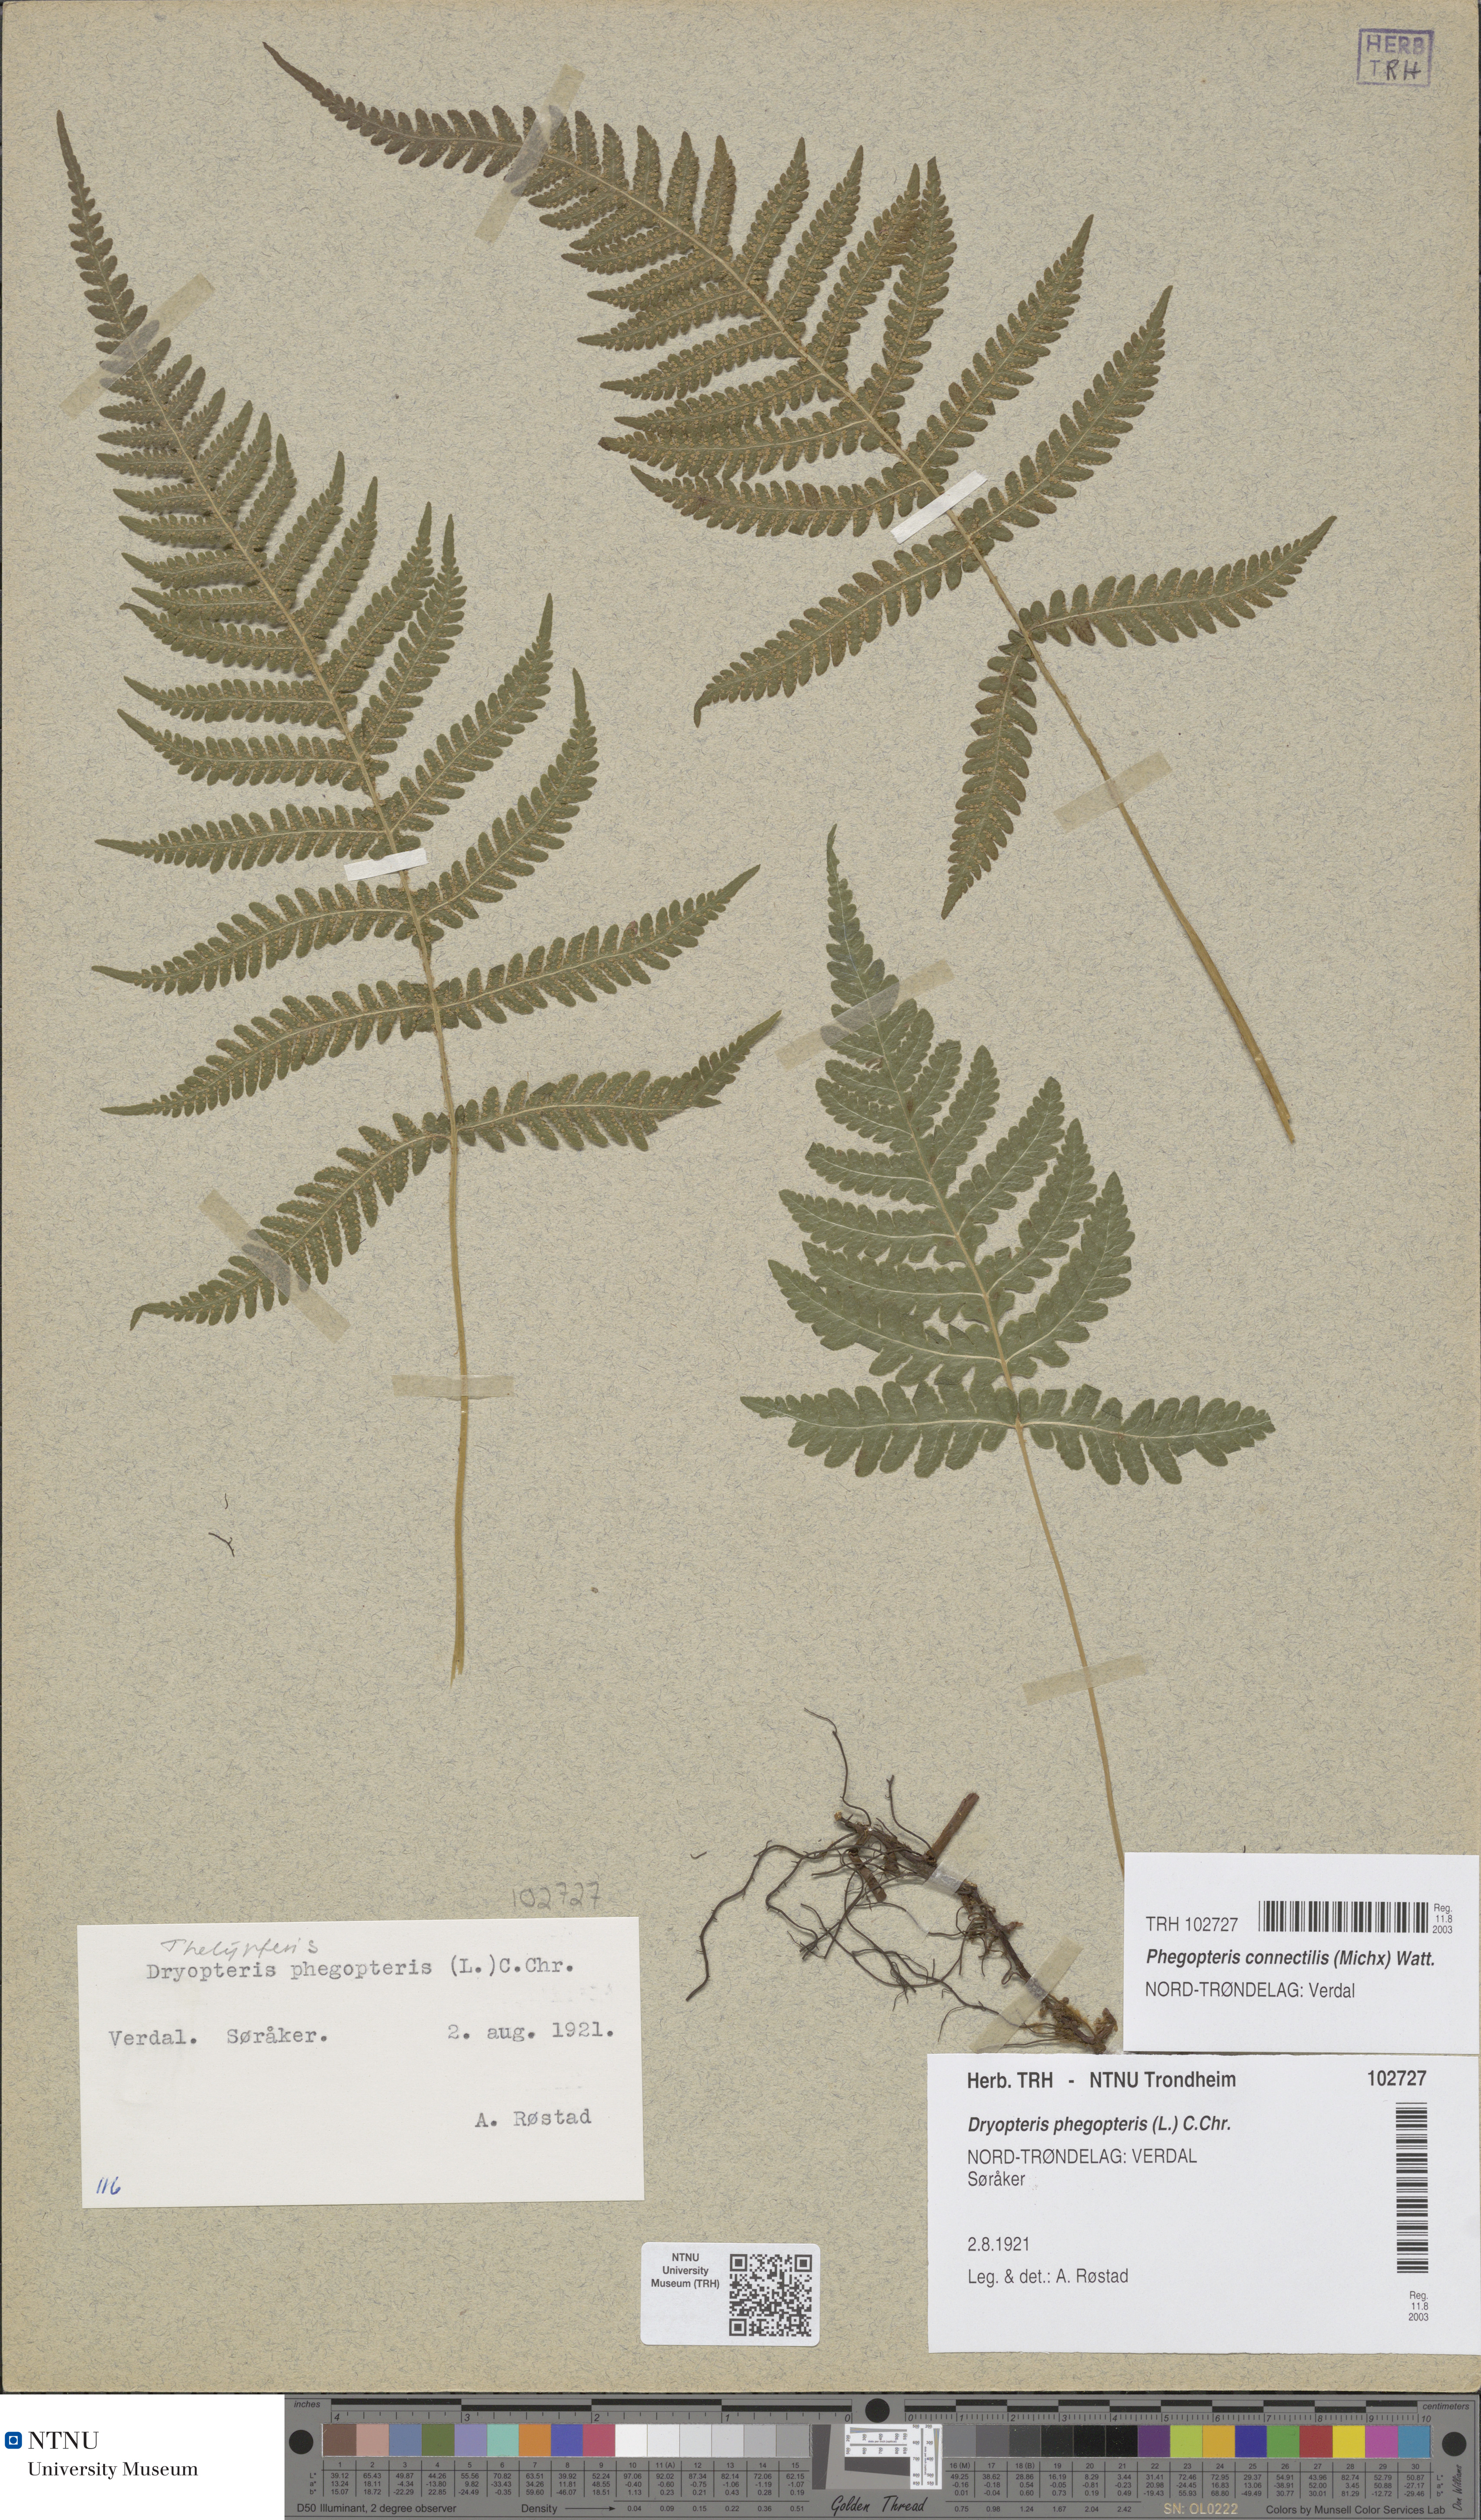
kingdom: Plantae
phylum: Tracheophyta
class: Polypodiopsida
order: Polypodiales
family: Thelypteridaceae
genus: Phegopteris
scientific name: Phegopteris connectilis
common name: Beech fern
